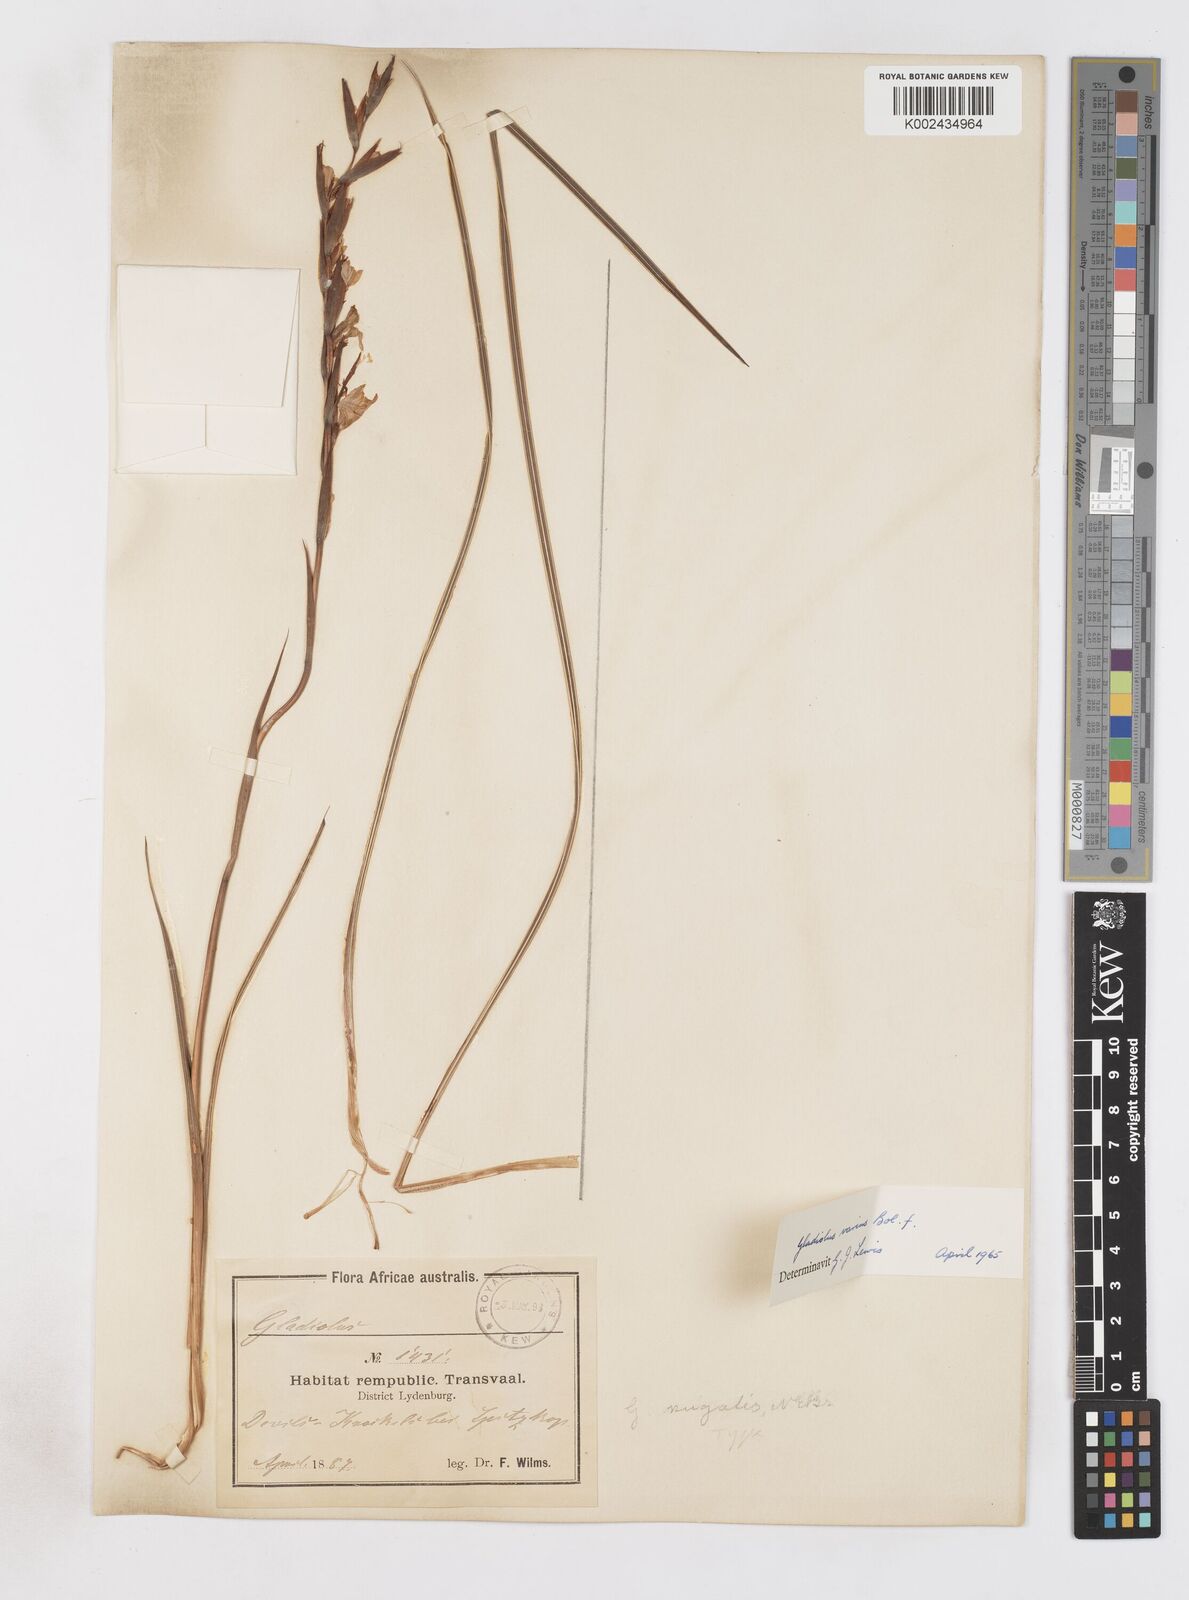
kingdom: Plantae
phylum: Tracheophyta
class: Liliopsida
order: Asparagales
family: Iridaceae
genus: Gladiolus
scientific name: Gladiolus ferrugineus
